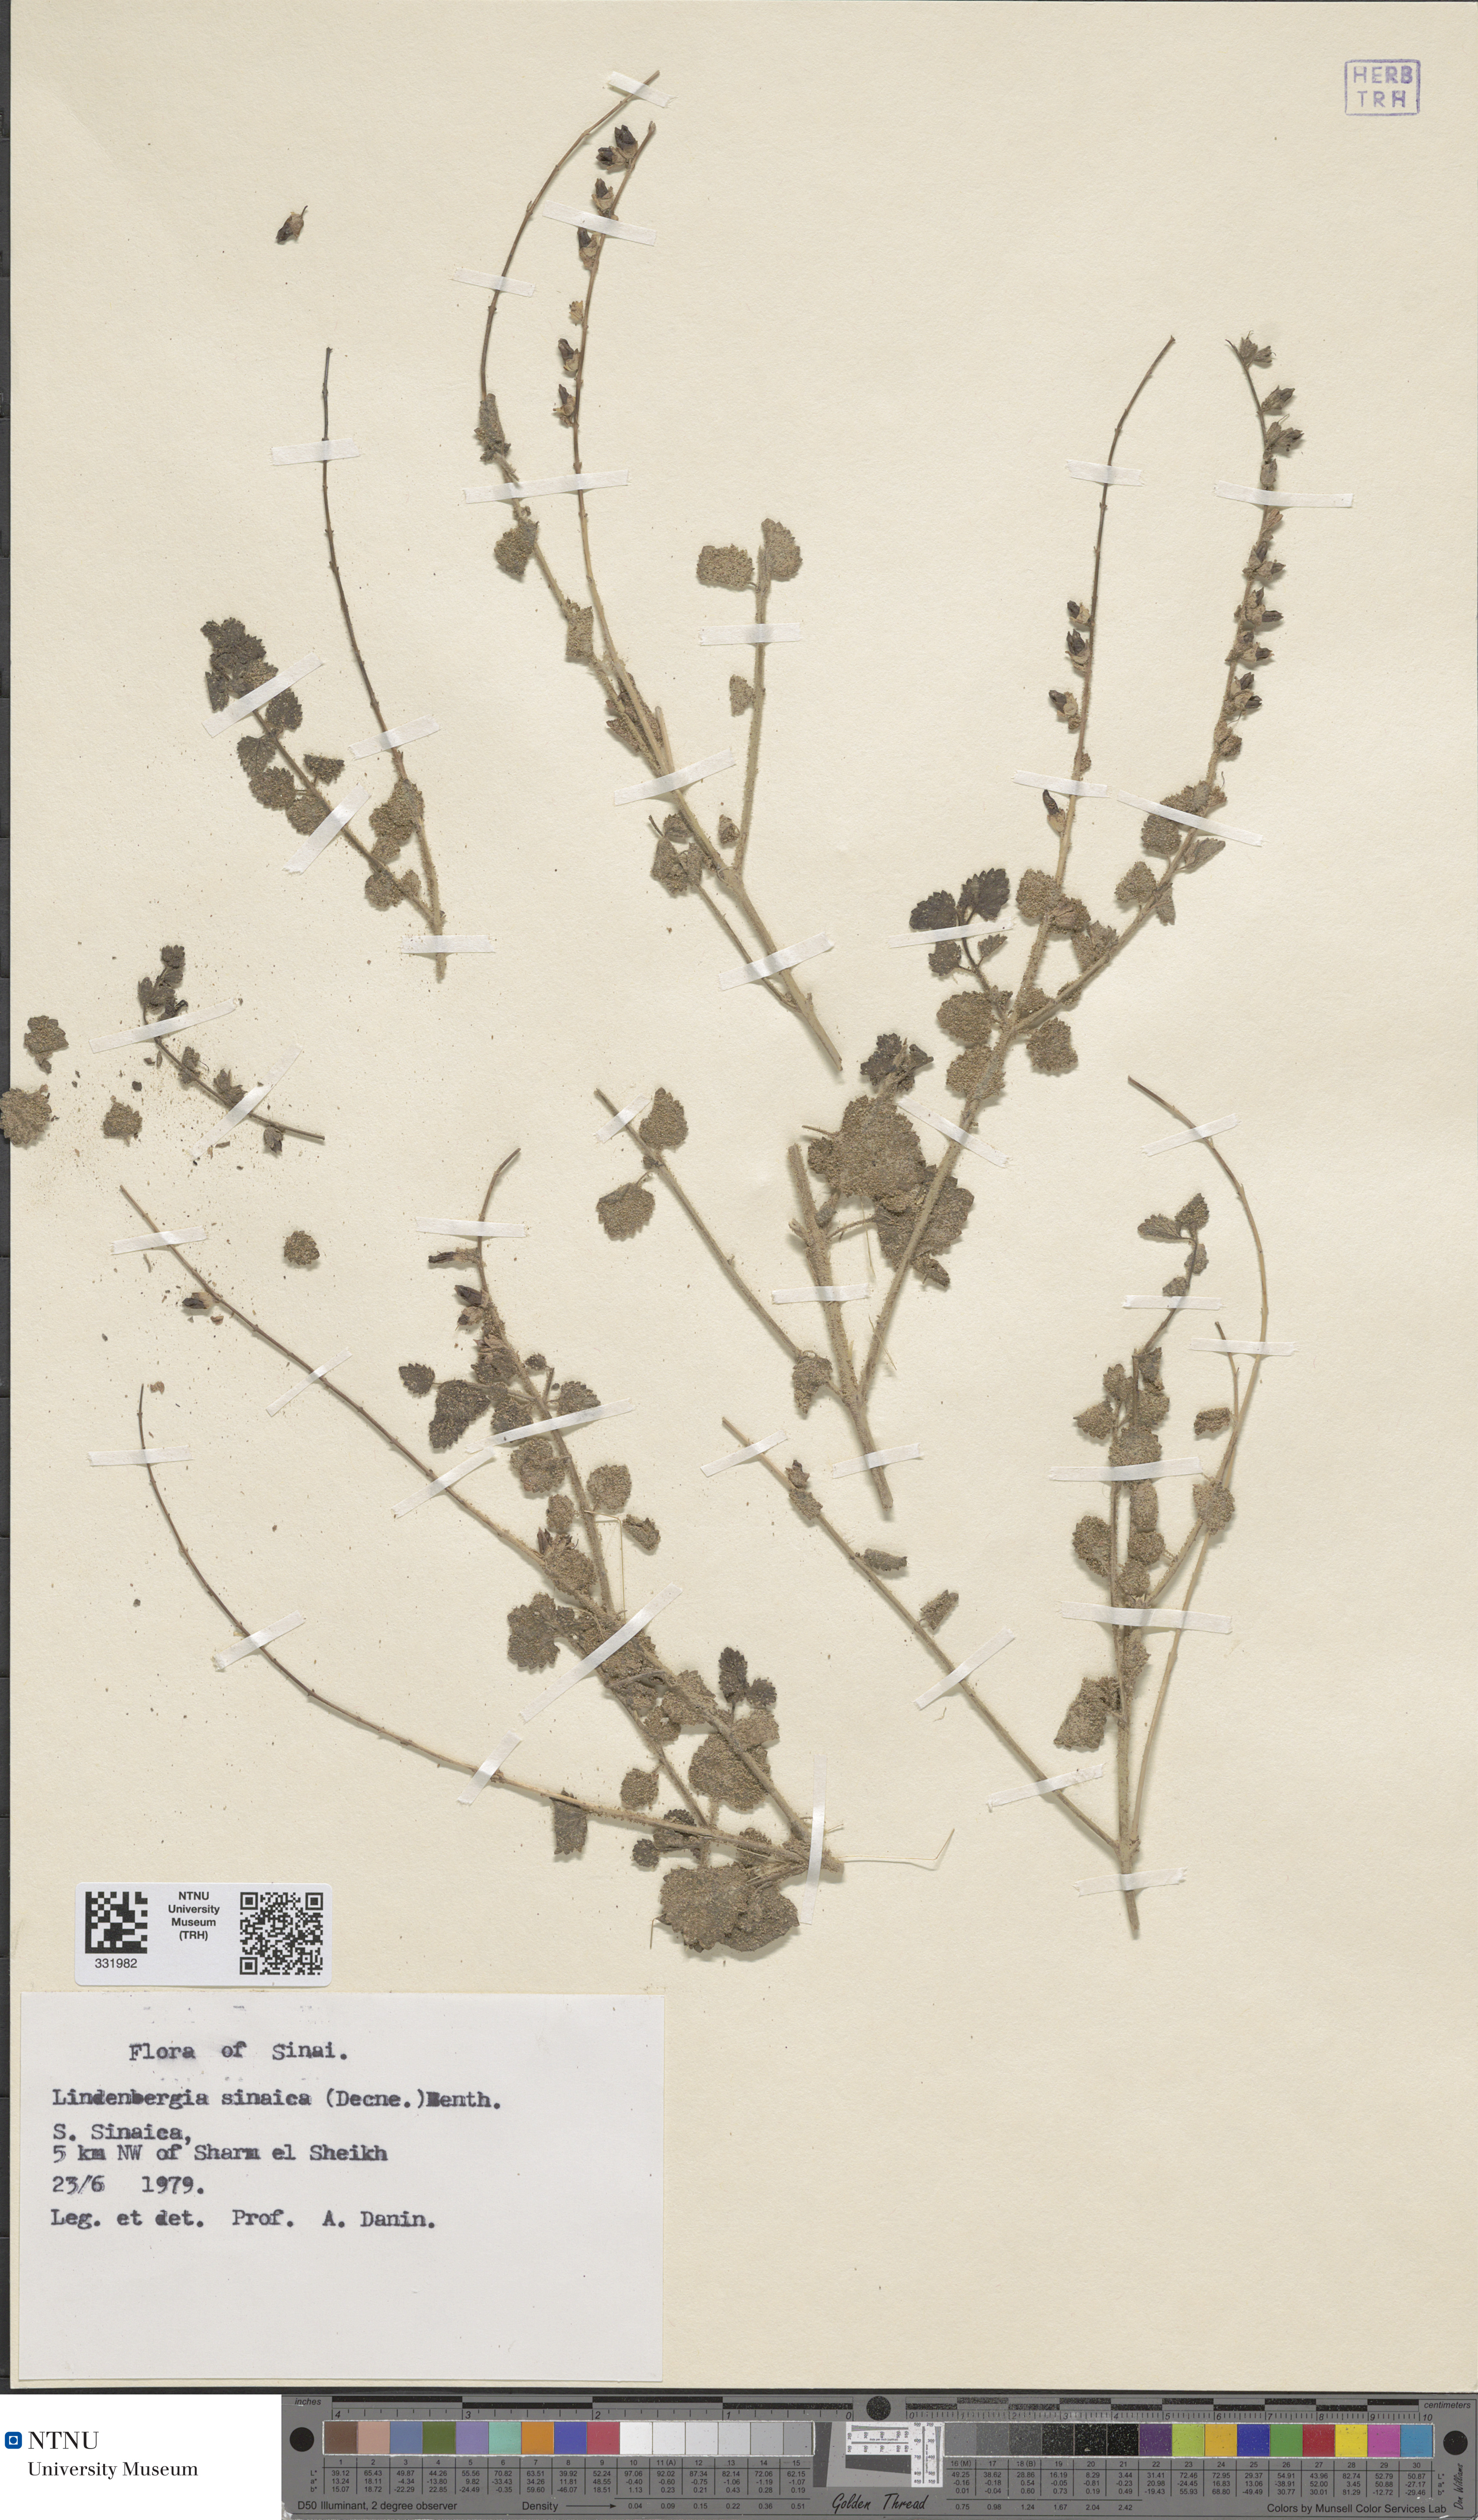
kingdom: Plantae
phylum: Tracheophyta
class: Magnoliopsida
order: Lamiales
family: Orobanchaceae
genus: Lindenbergia
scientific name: Lindenbergia indica
